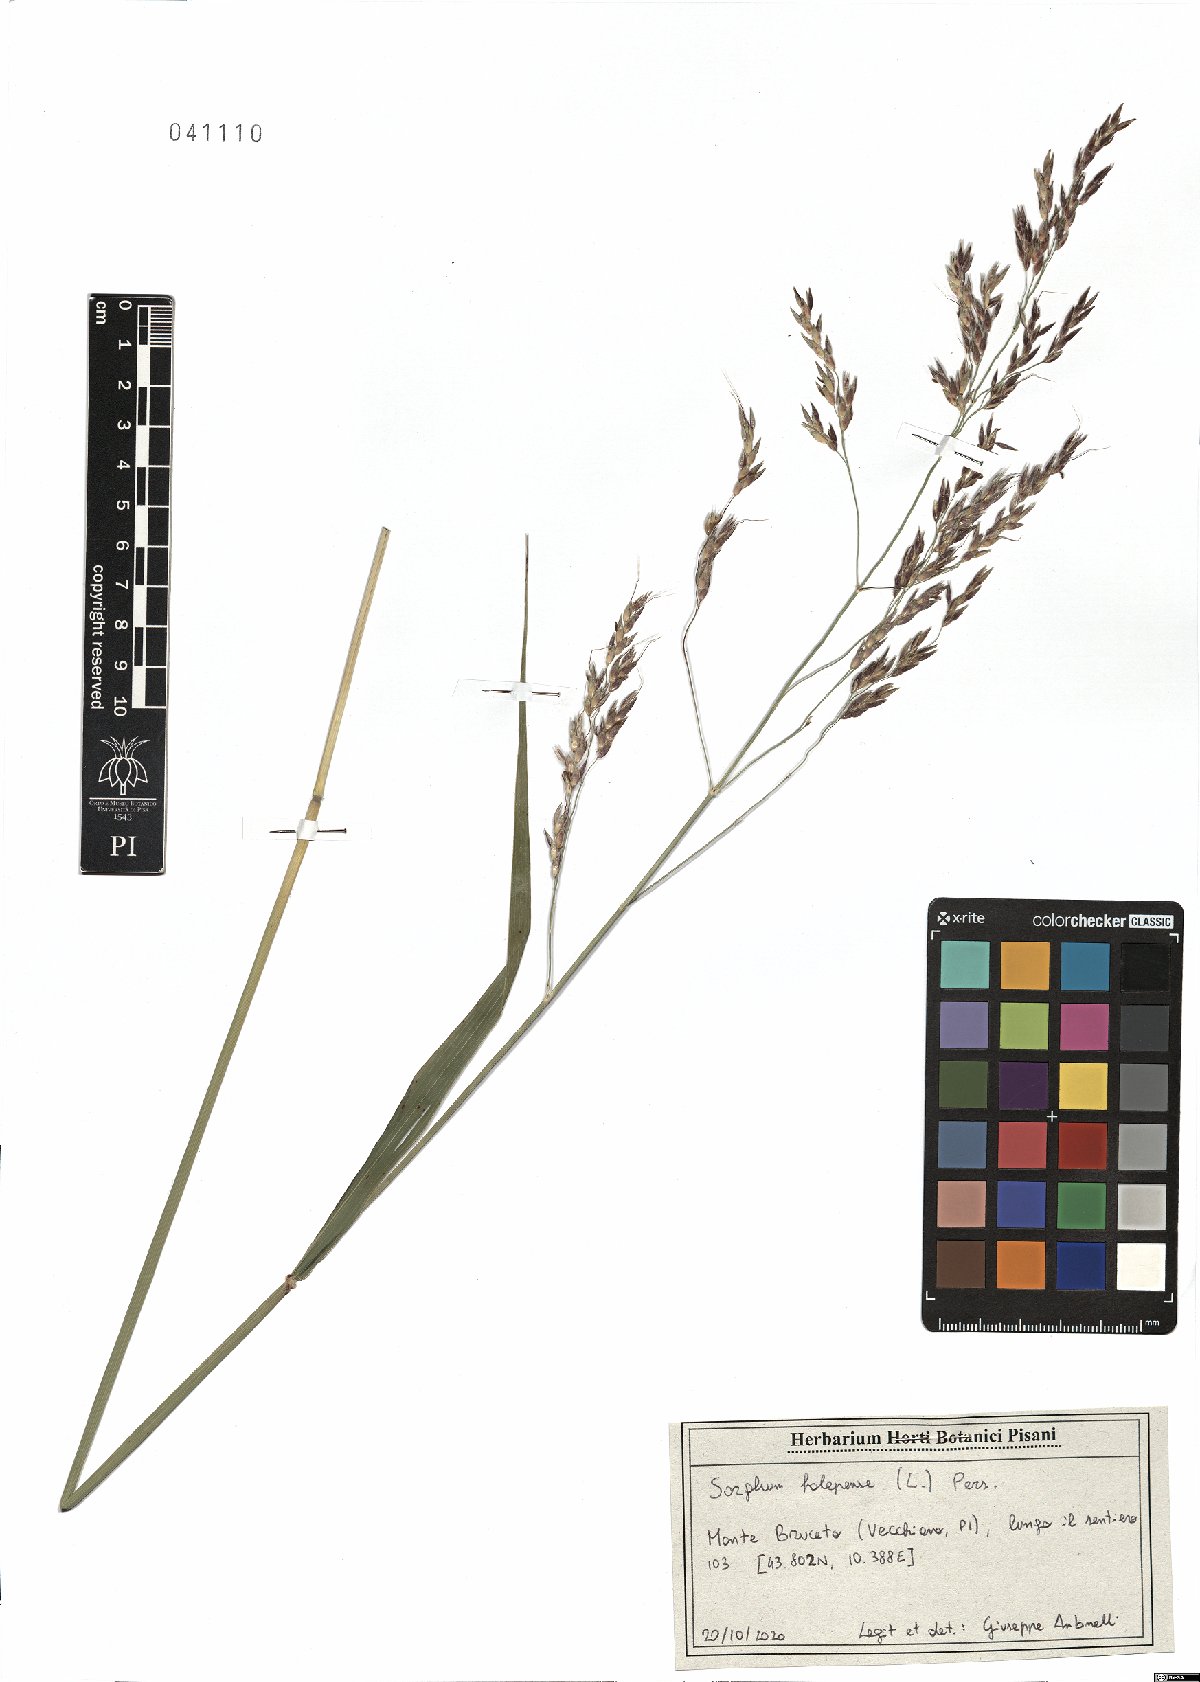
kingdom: Plantae
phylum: Tracheophyta
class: Liliopsida
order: Poales
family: Poaceae
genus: Sorghum
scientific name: Sorghum halepense
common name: Johnson-grass
